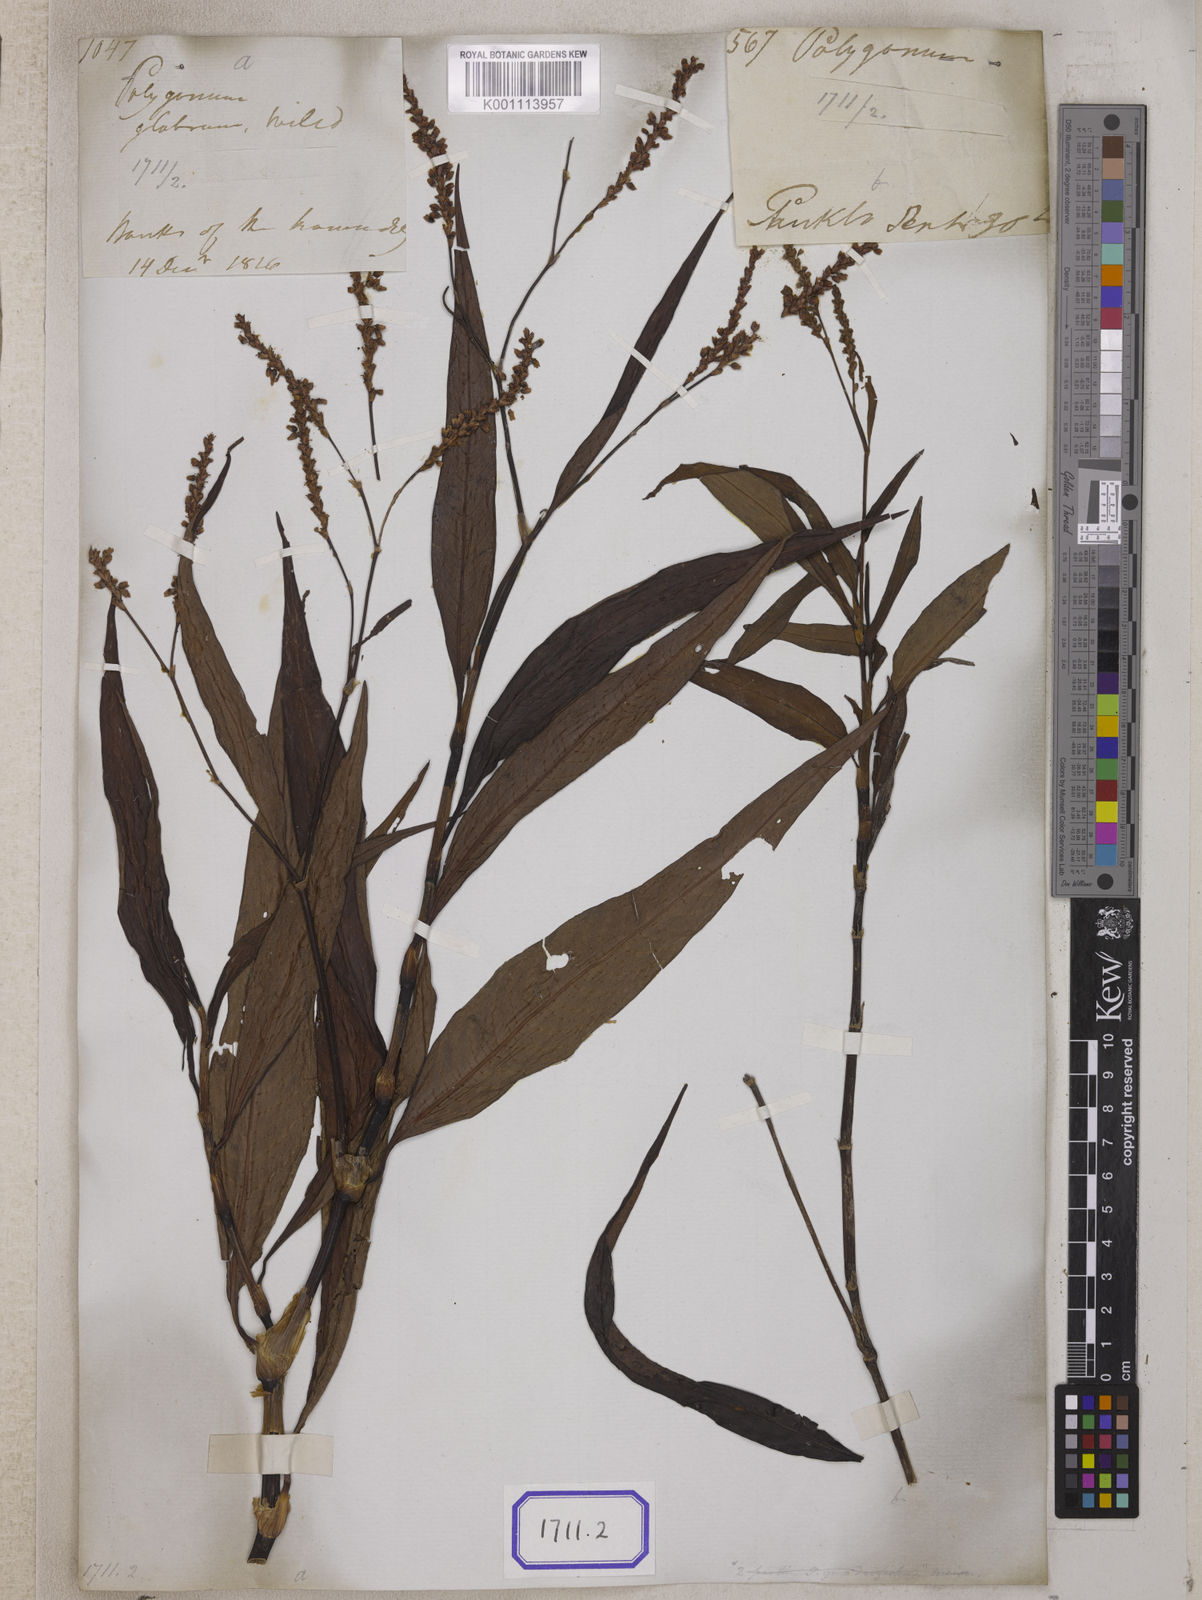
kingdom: Plantae
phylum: Tracheophyta
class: Magnoliopsida
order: Caryophyllales
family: Polygonaceae
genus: Persicaria
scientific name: Persicaria glabra
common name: Denseflower knotweed
